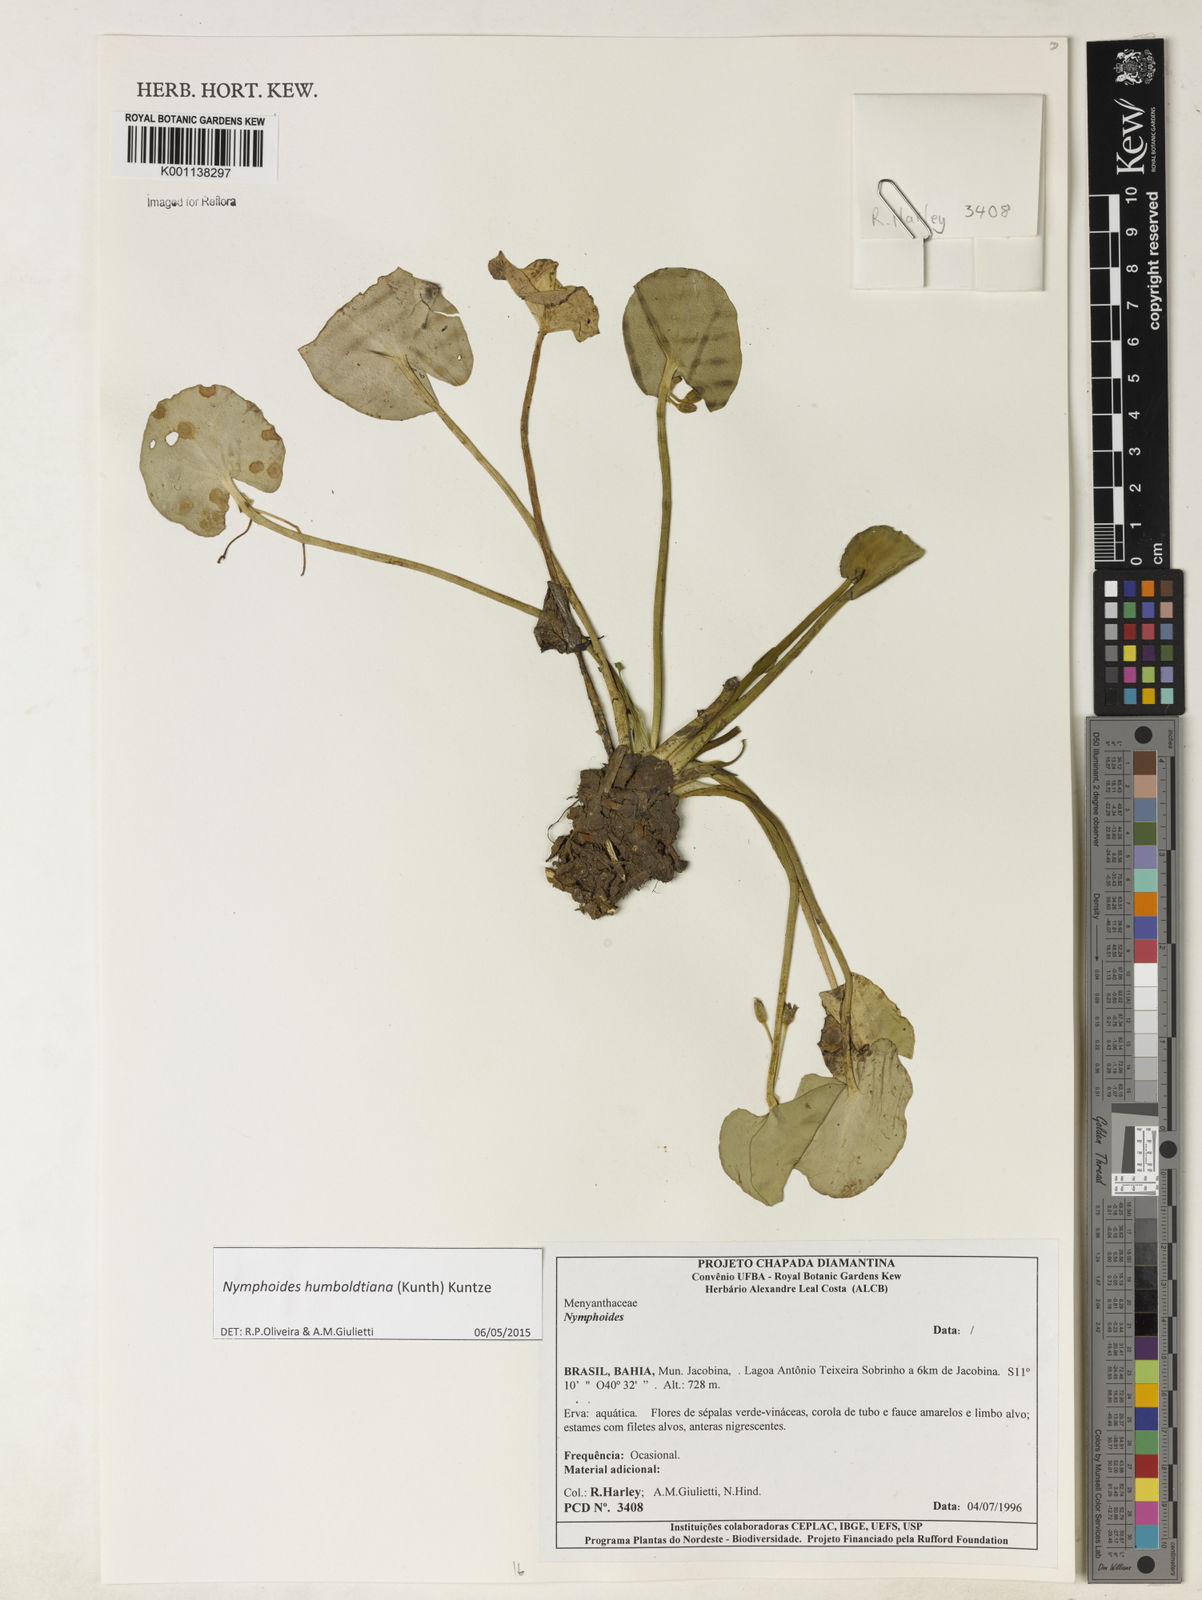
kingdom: Plantae
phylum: Tracheophyta
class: Magnoliopsida
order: Asterales
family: Menyanthaceae
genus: Nymphoides
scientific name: Nymphoides
